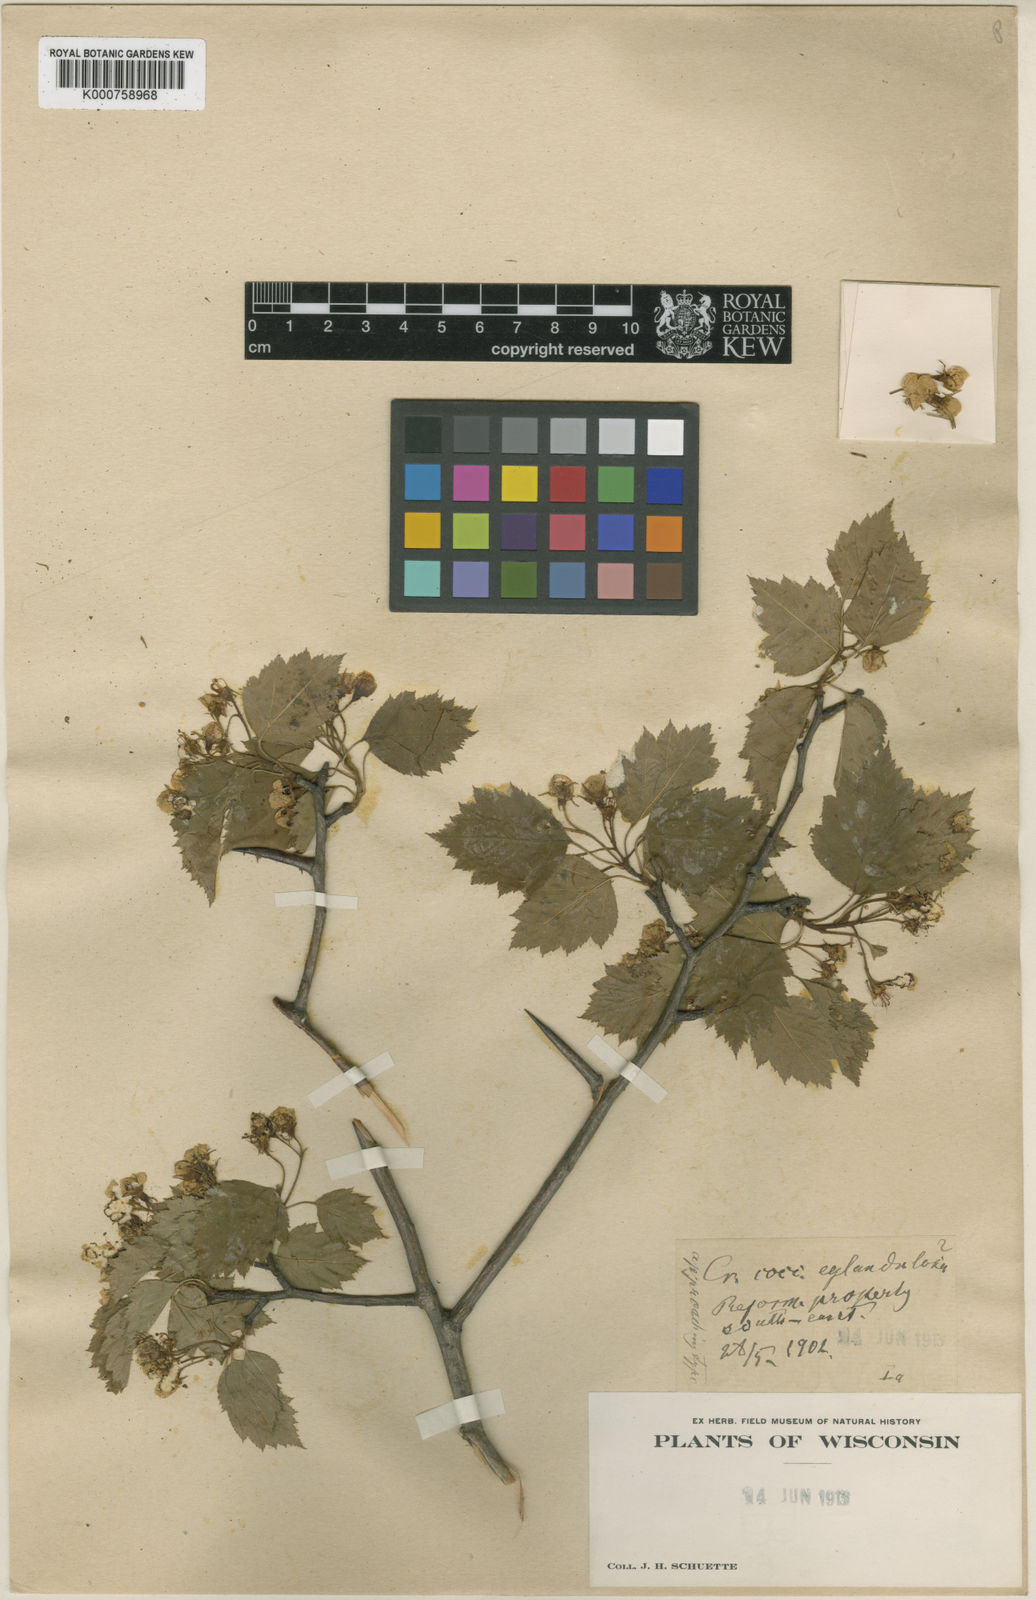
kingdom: Plantae
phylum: Tracheophyta
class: Magnoliopsida
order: Rosales
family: Rosaceae
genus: Crataegus
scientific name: Crataegus
